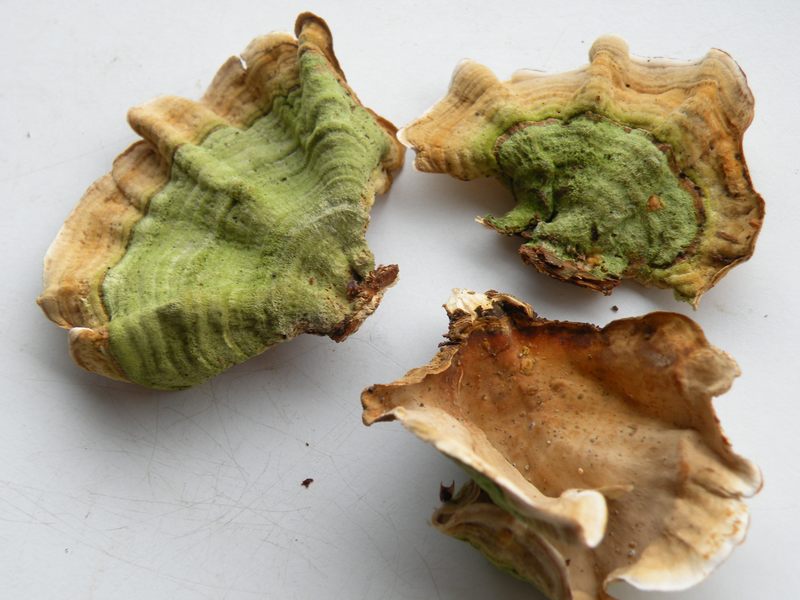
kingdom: Fungi
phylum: Basidiomycota
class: Agaricomycetes
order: Russulales
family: Stereaceae
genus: Stereum
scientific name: Stereum subtomentosum
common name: smuk lædersvamp
